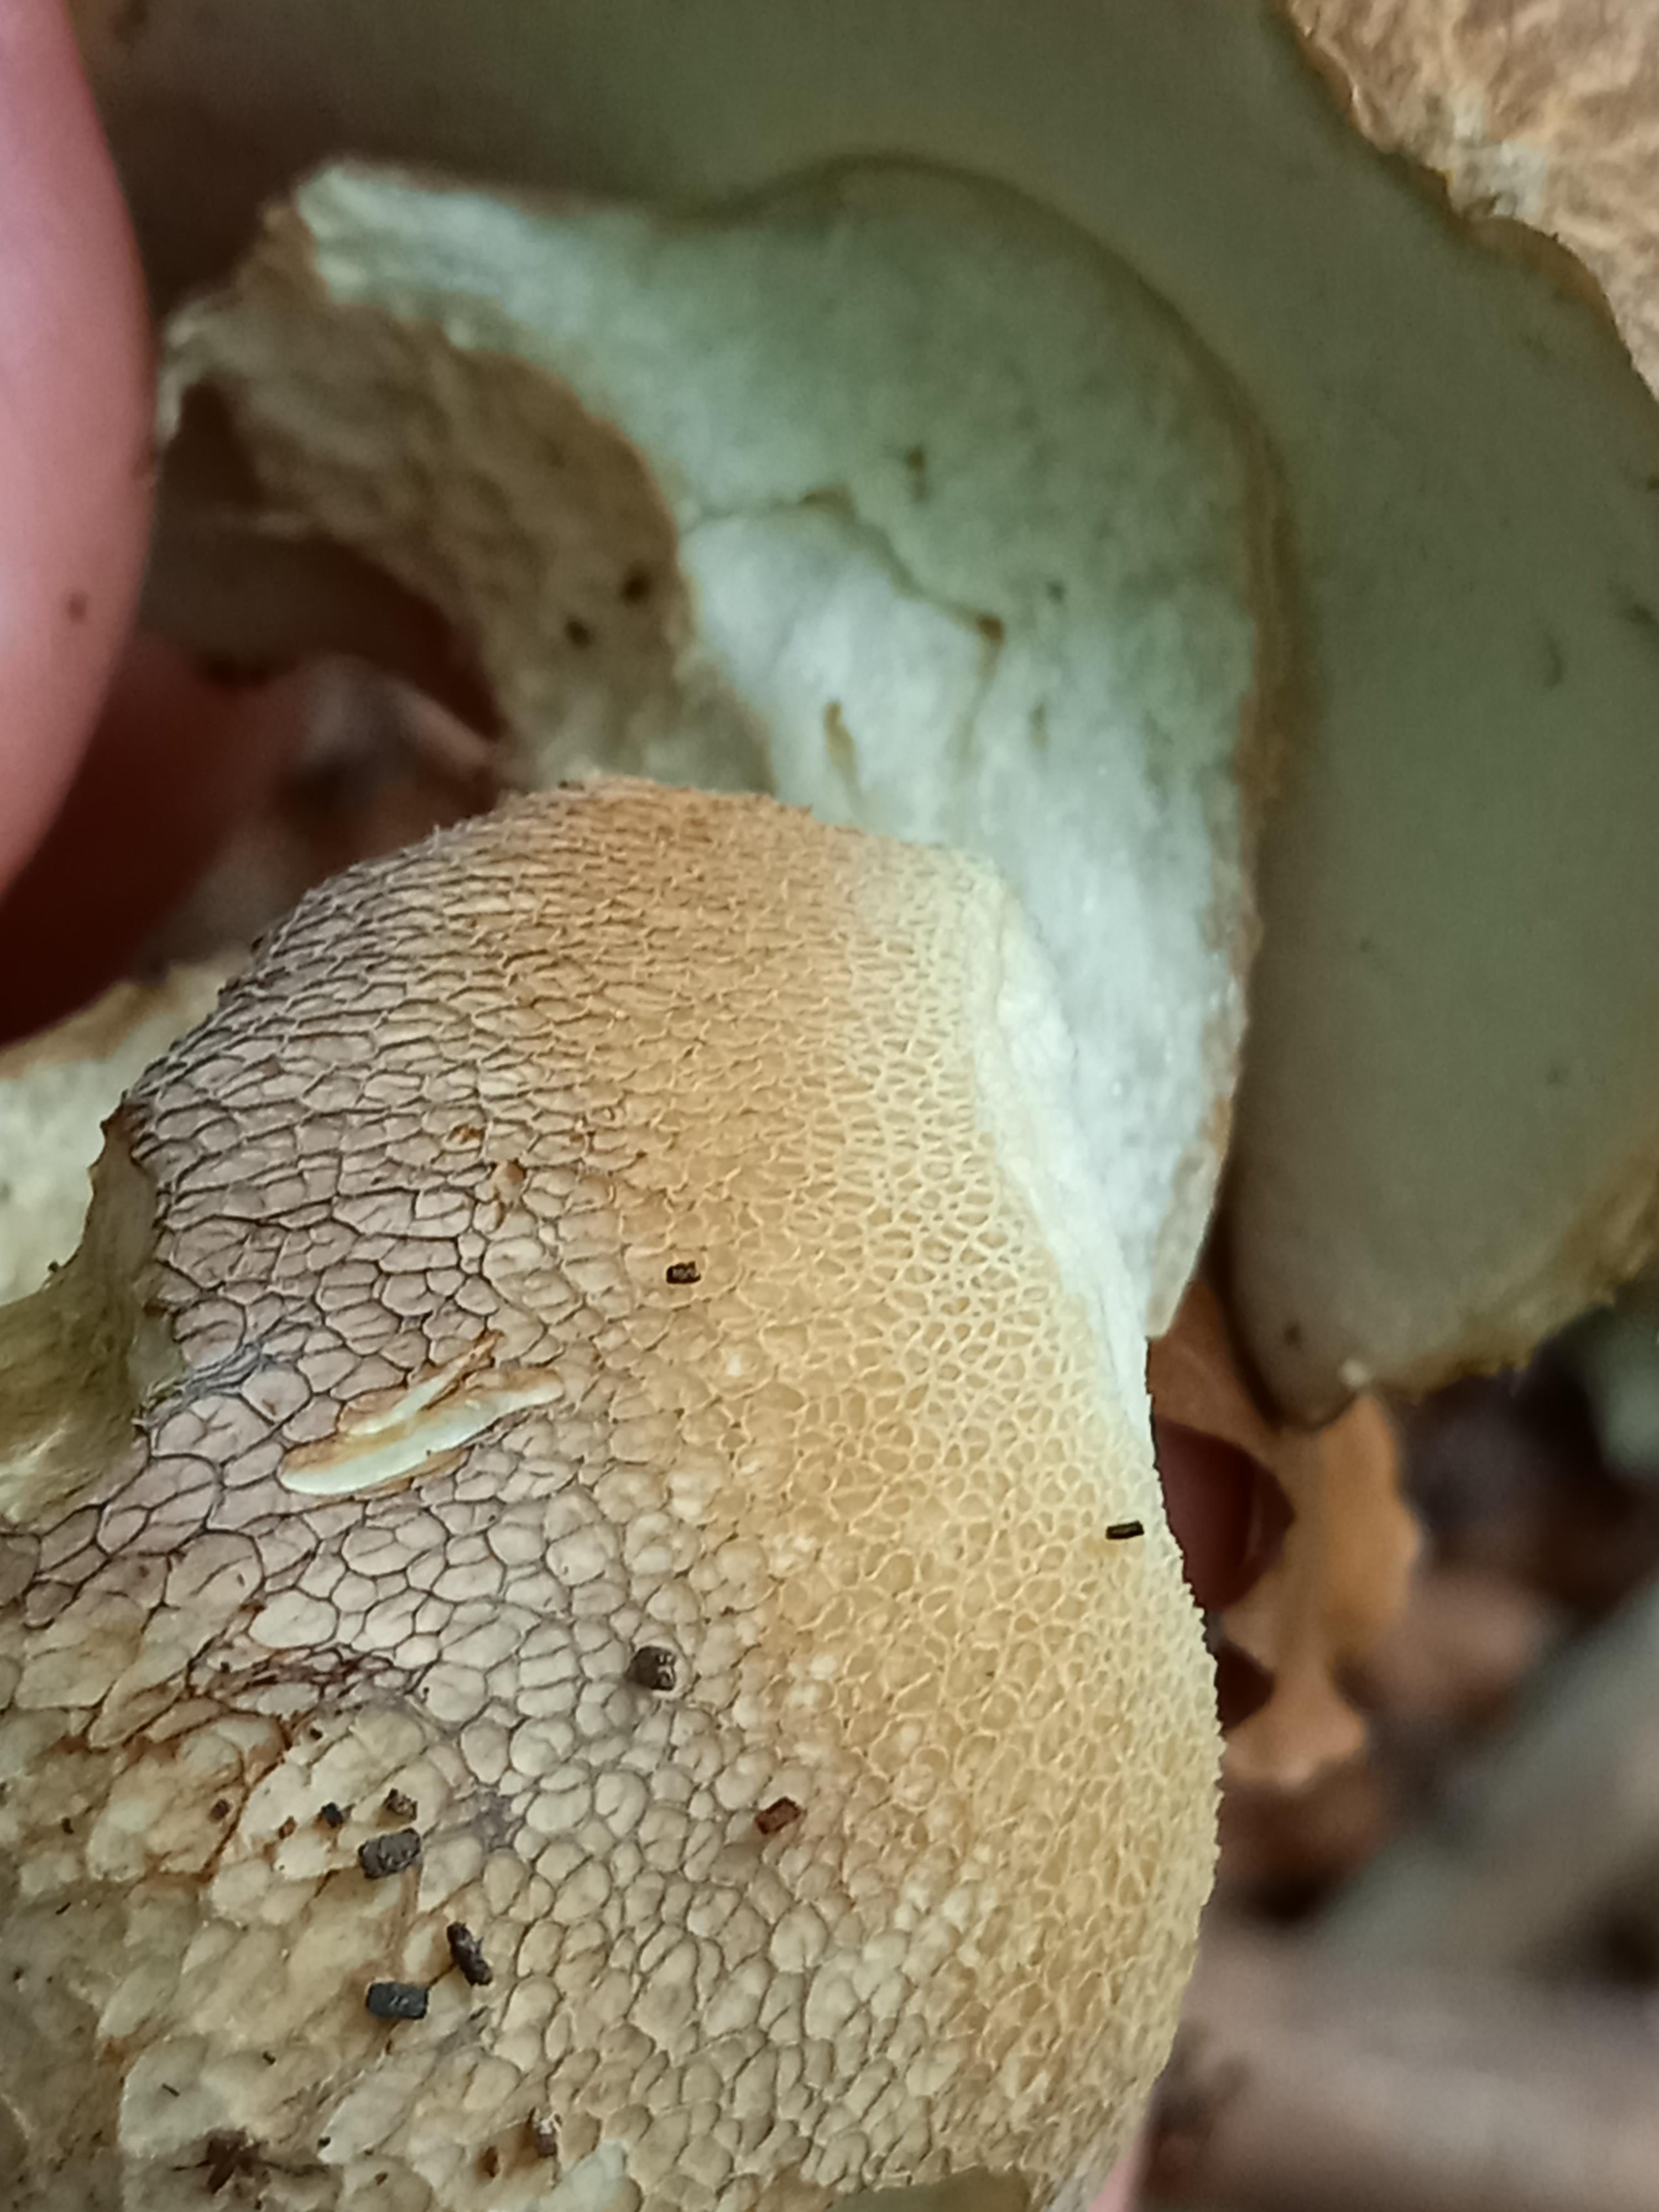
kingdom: Fungi
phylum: Basidiomycota
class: Agaricomycetes
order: Boletales
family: Boletaceae
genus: Boletus
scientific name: Boletus reticulatus
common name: sommer-rørhat
